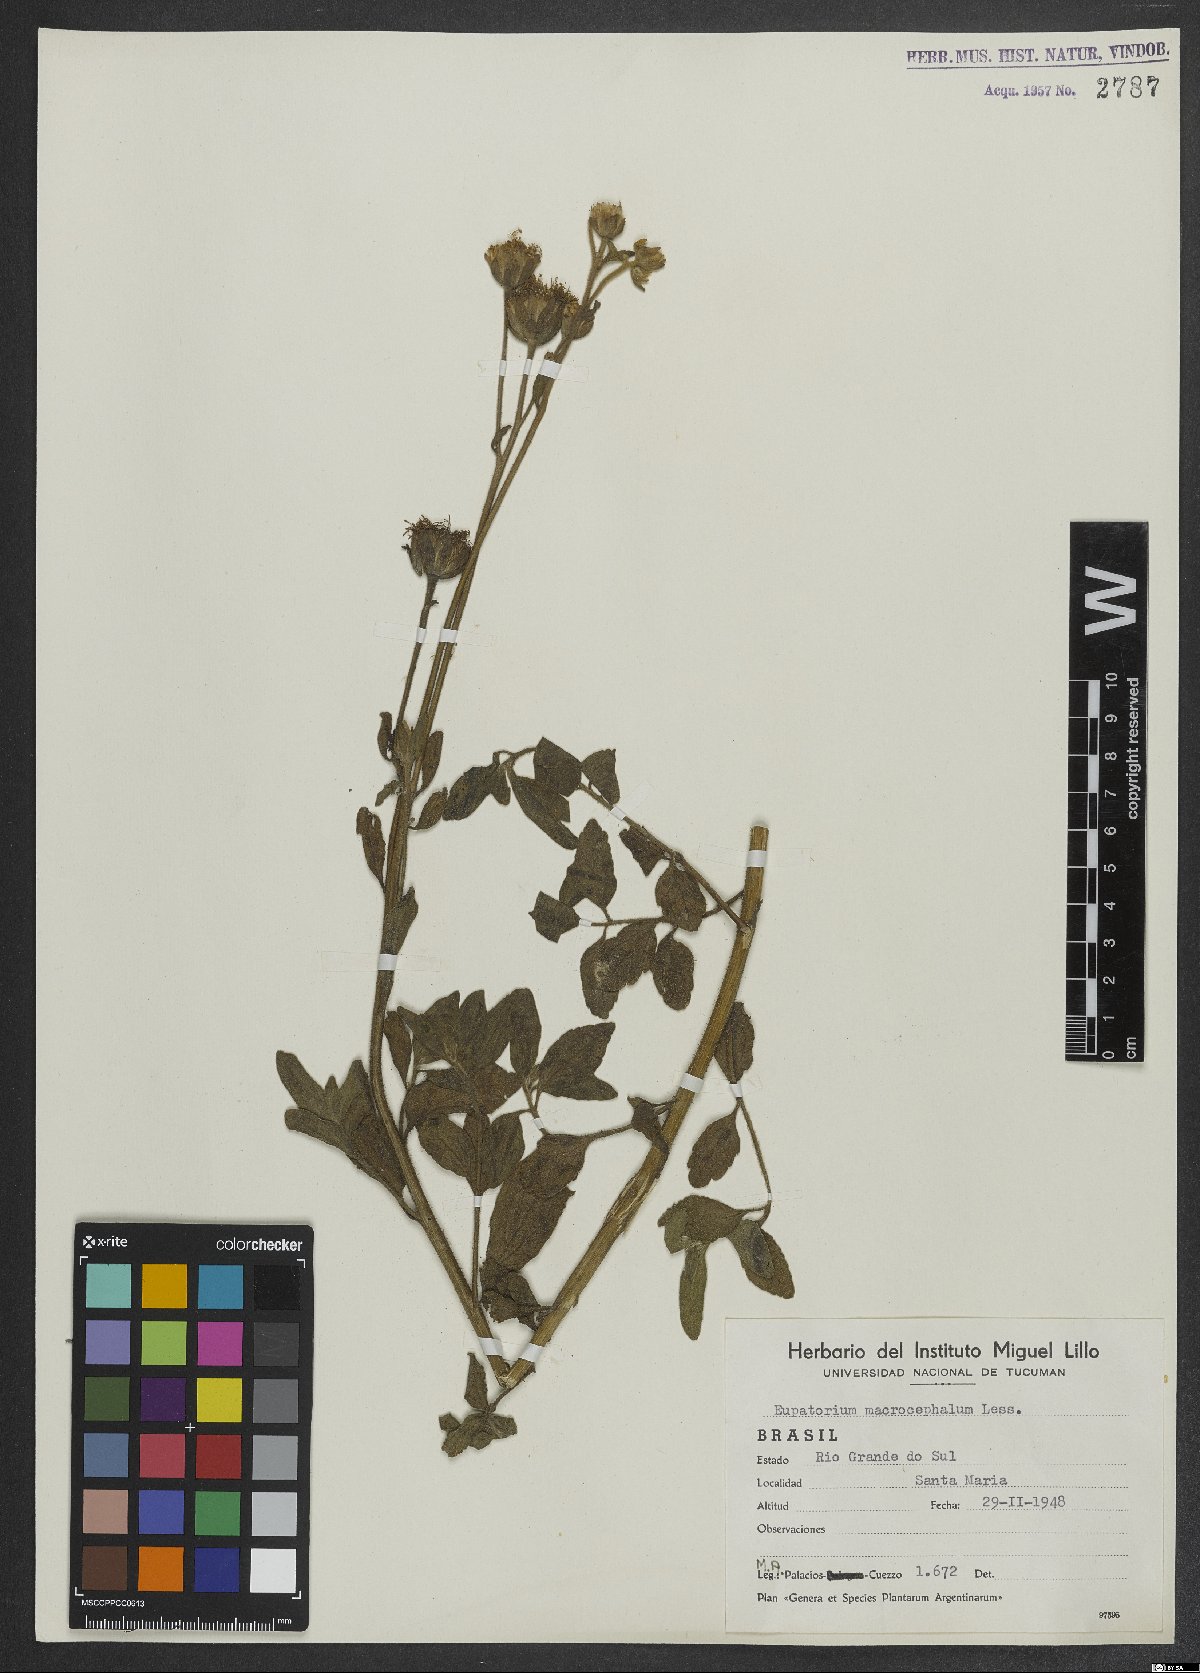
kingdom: Plantae
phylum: Tracheophyta
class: Magnoliopsida
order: Asterales
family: Asteraceae
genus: Campuloclinium
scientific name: Campuloclinium macrocephalum
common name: Pompomweed
